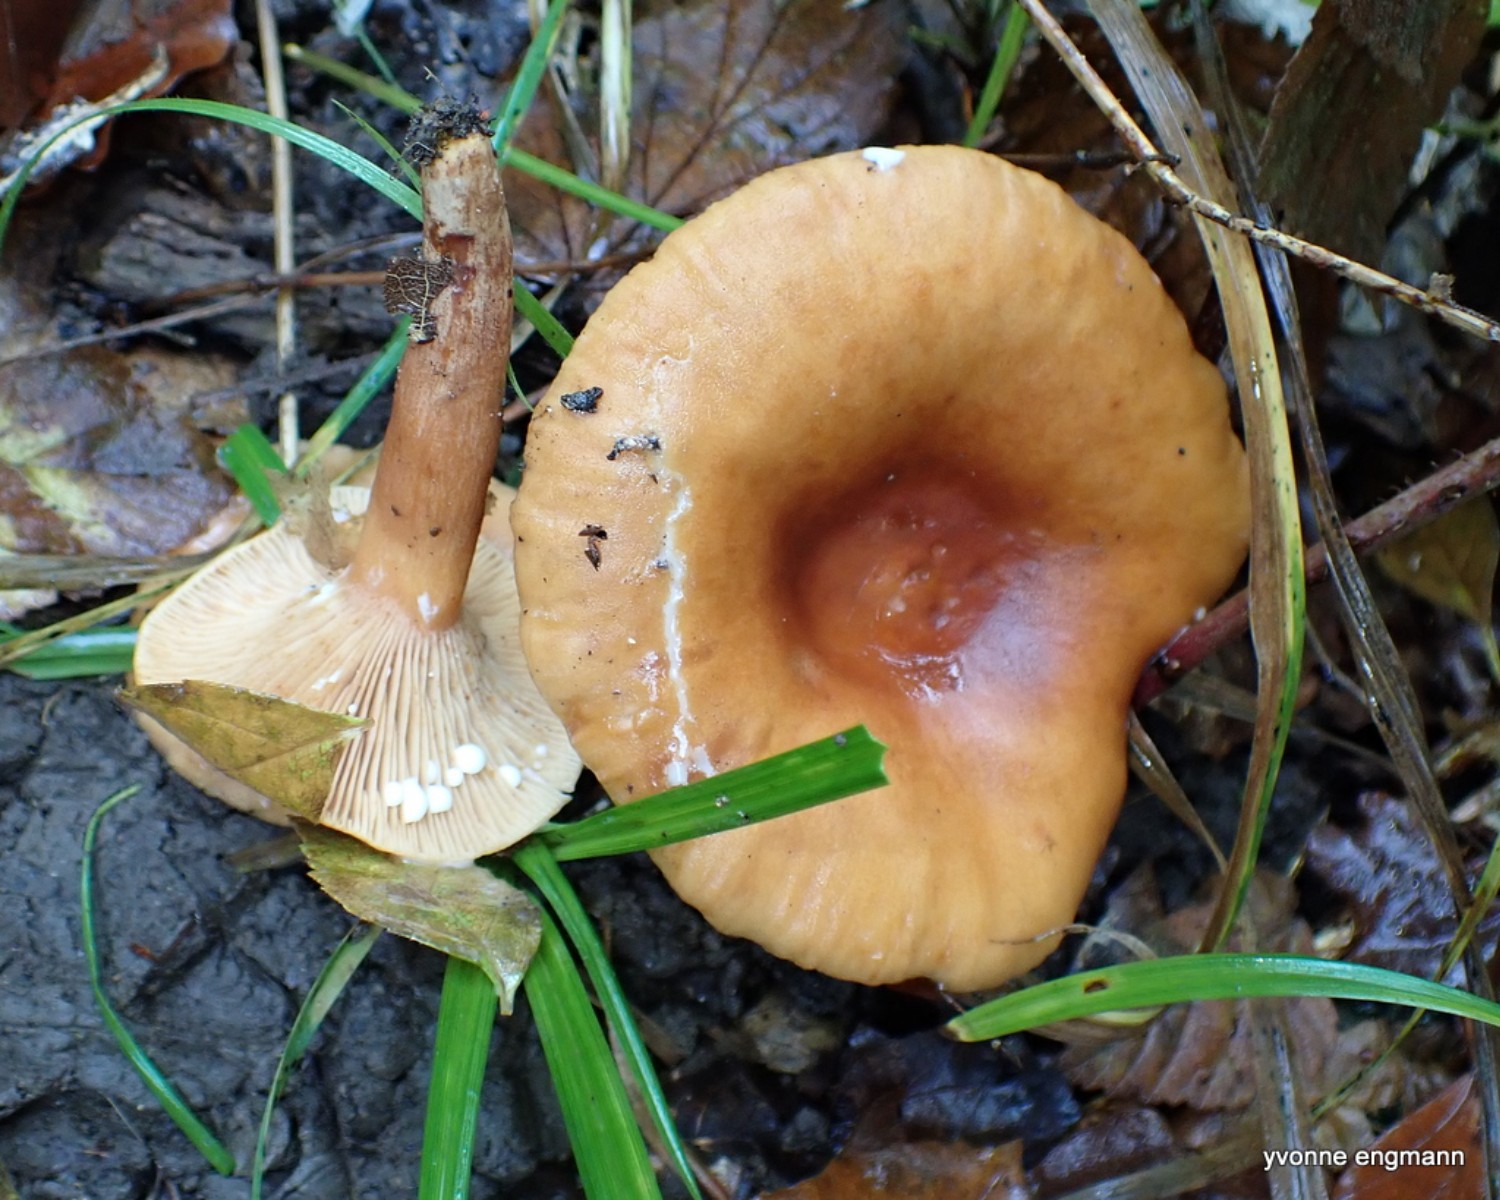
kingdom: Fungi
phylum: Basidiomycota
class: Agaricomycetes
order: Russulales
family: Russulaceae
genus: Lactarius
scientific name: Lactarius tabidus
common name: rynket mælkehat
